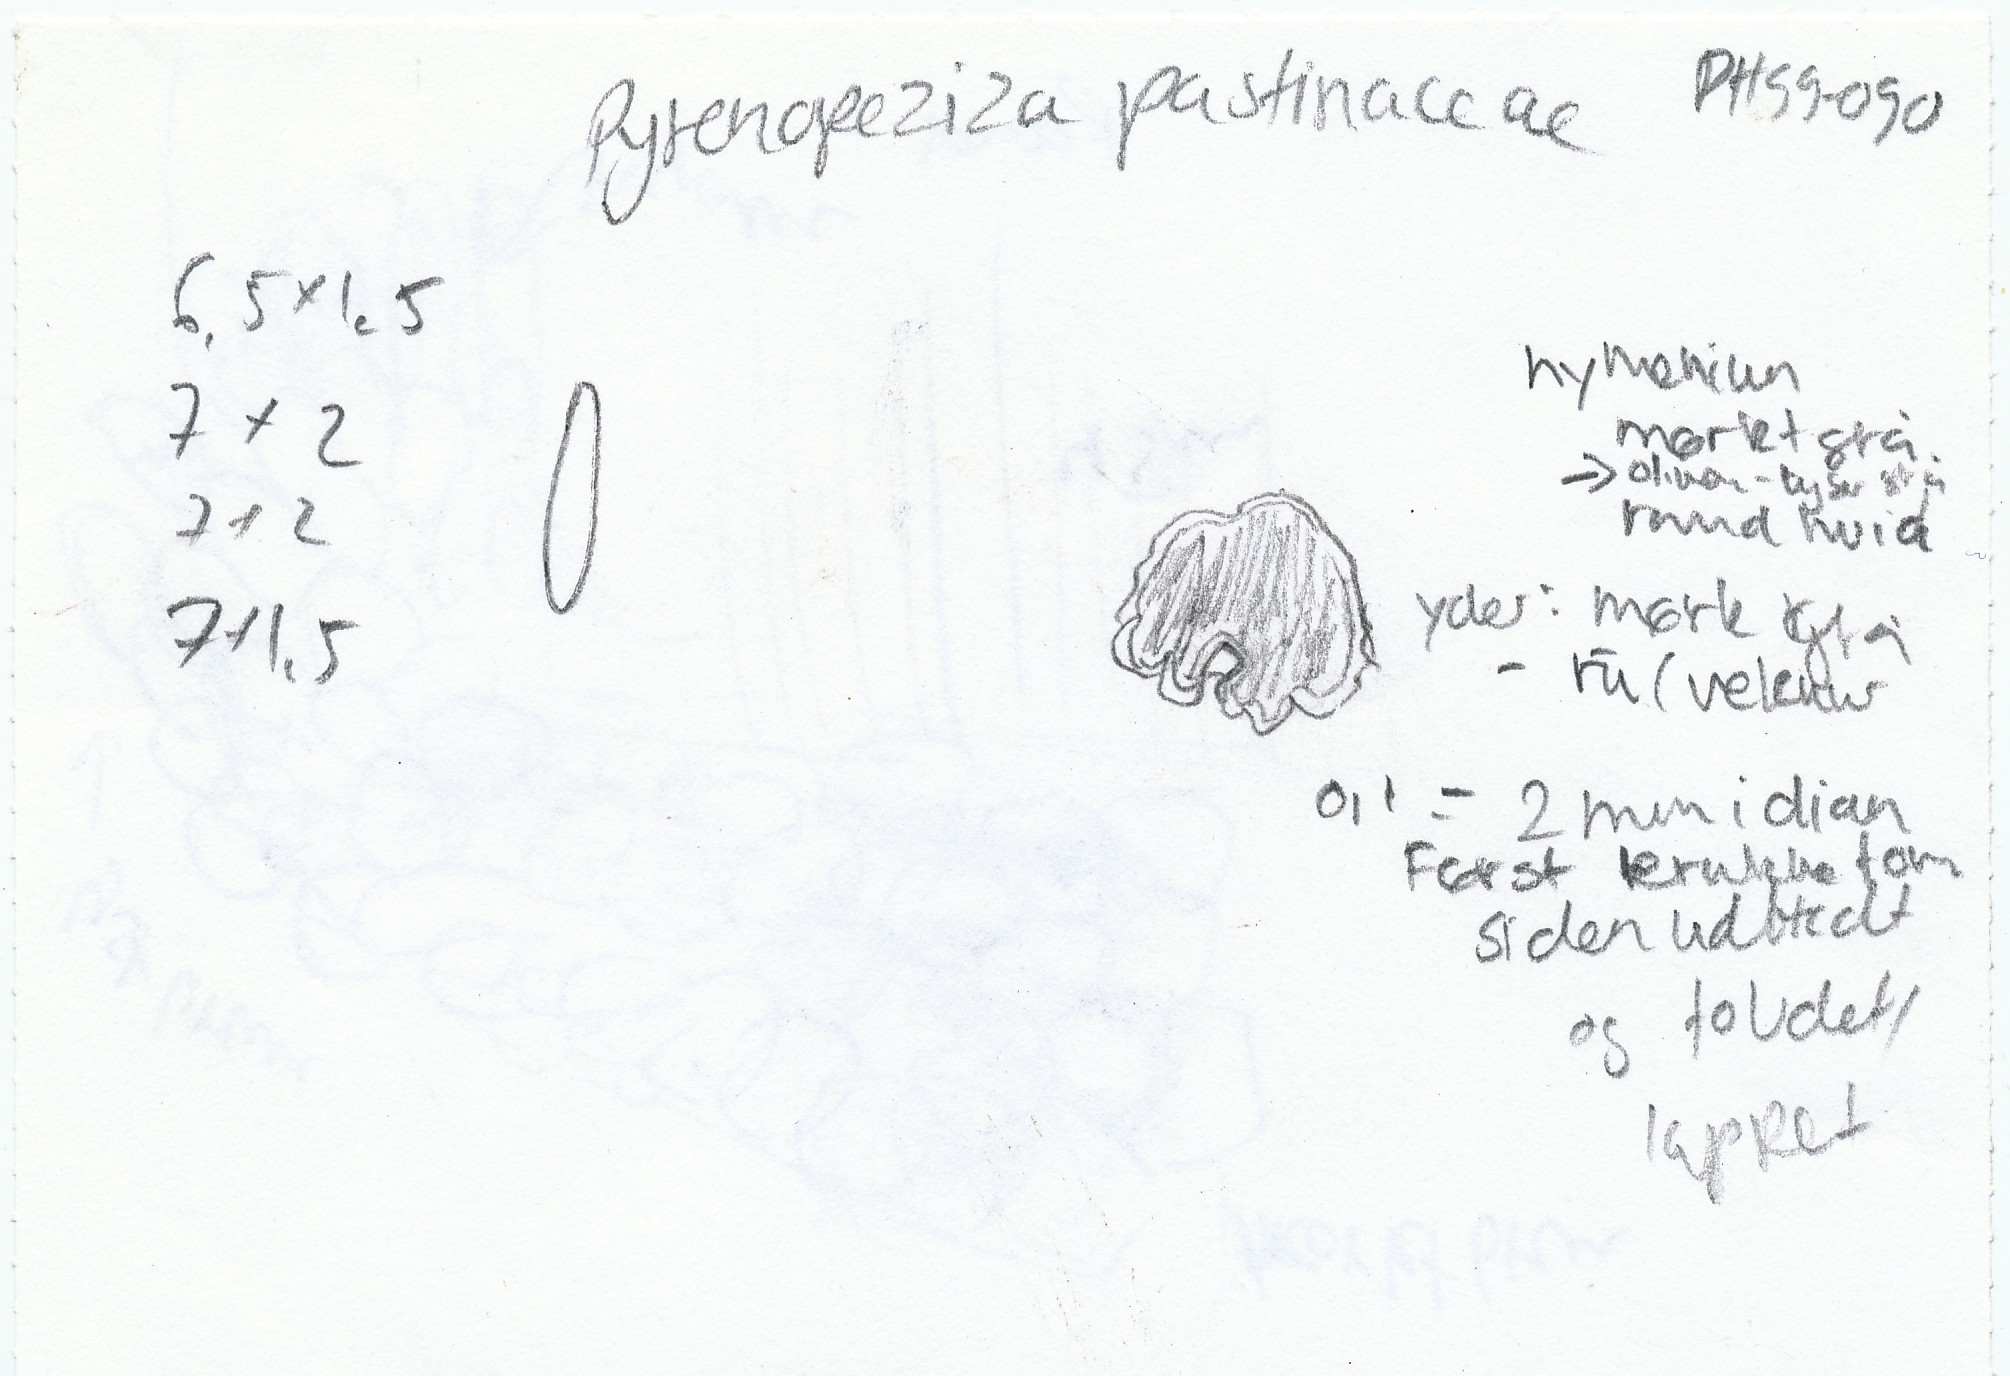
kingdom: Fungi
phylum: Ascomycota
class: Leotiomycetes
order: Helotiales
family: Ploettnerulaceae
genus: Pyrenopeziza
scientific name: Pyrenopeziza pastinacae
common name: stængel-kerneskive
